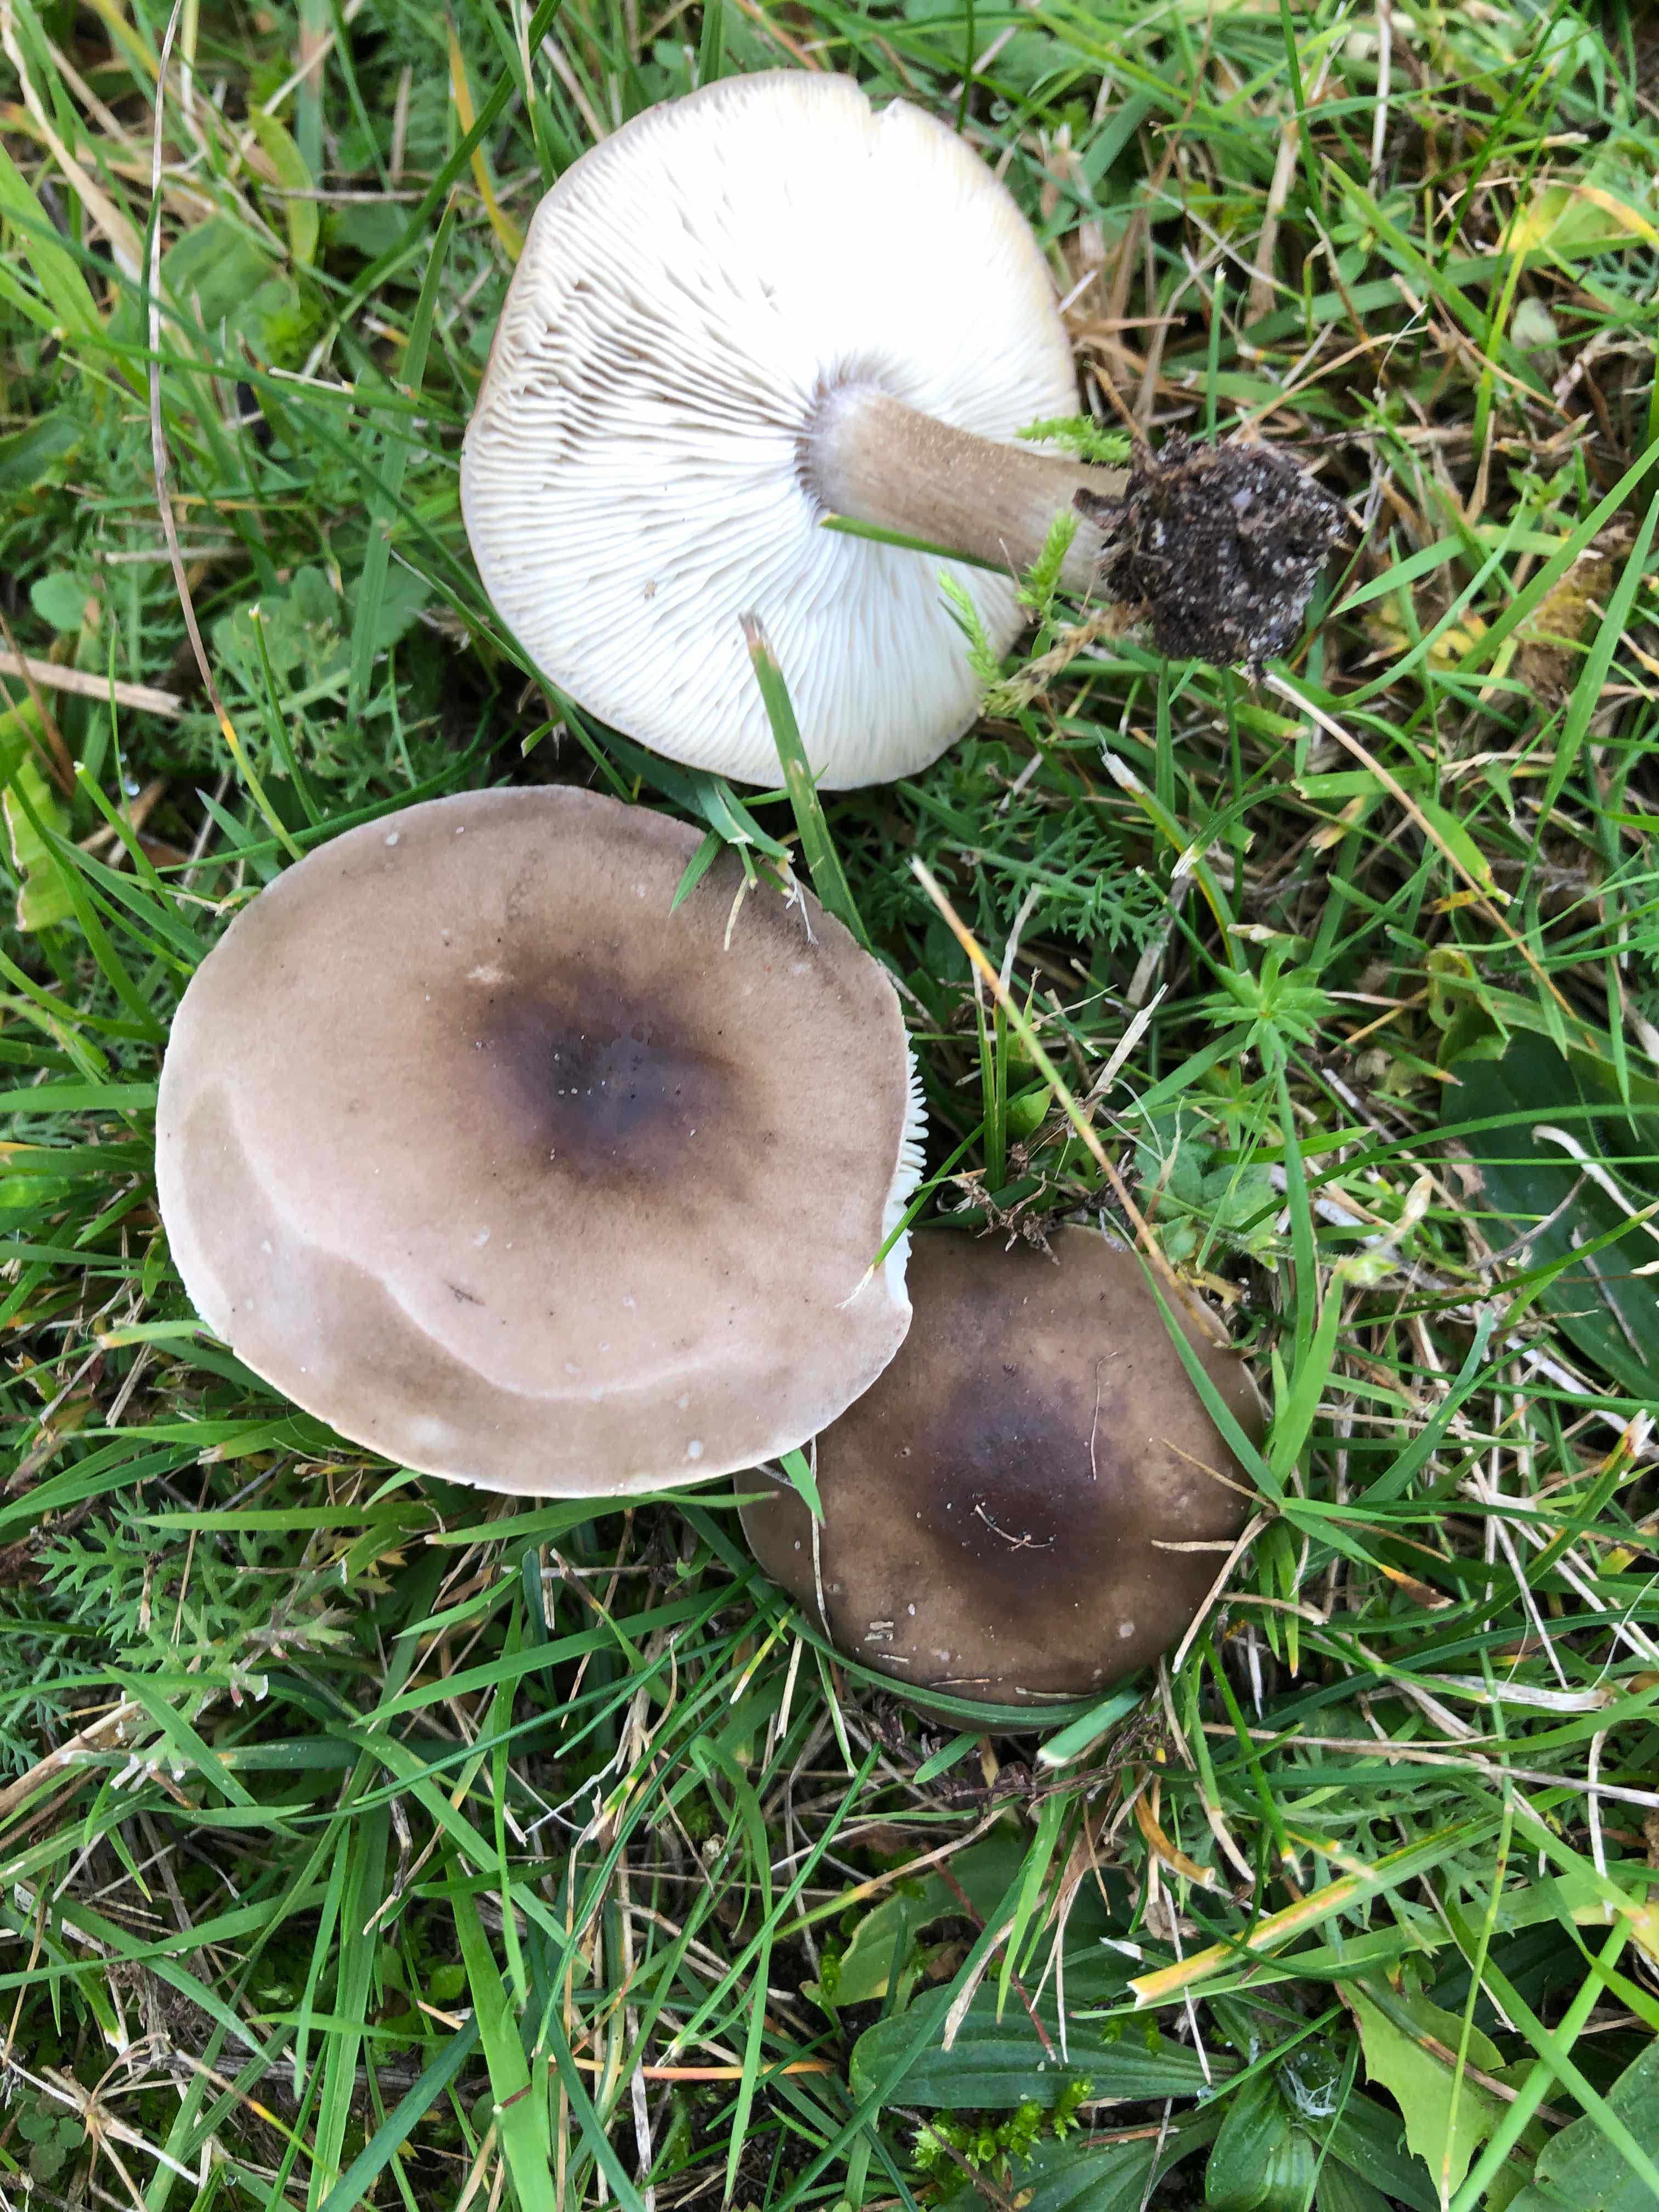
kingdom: Fungi
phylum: Basidiomycota
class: Agaricomycetes
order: Agaricales
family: Tricholomataceae
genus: Melanoleuca
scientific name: Melanoleuca
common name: munkehat
